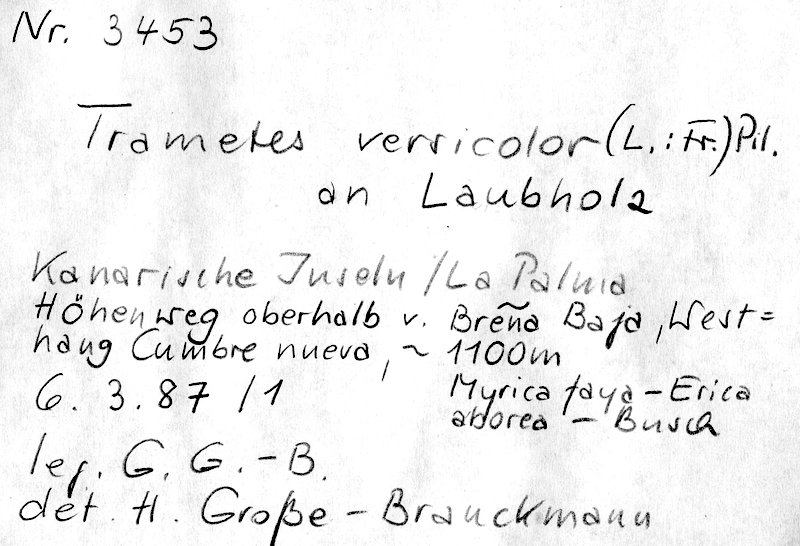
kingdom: Fungi
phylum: Basidiomycota
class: Agaricomycetes
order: Polyporales
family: Polyporaceae
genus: Trametes
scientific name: Trametes versicolor
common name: Turkeytail
